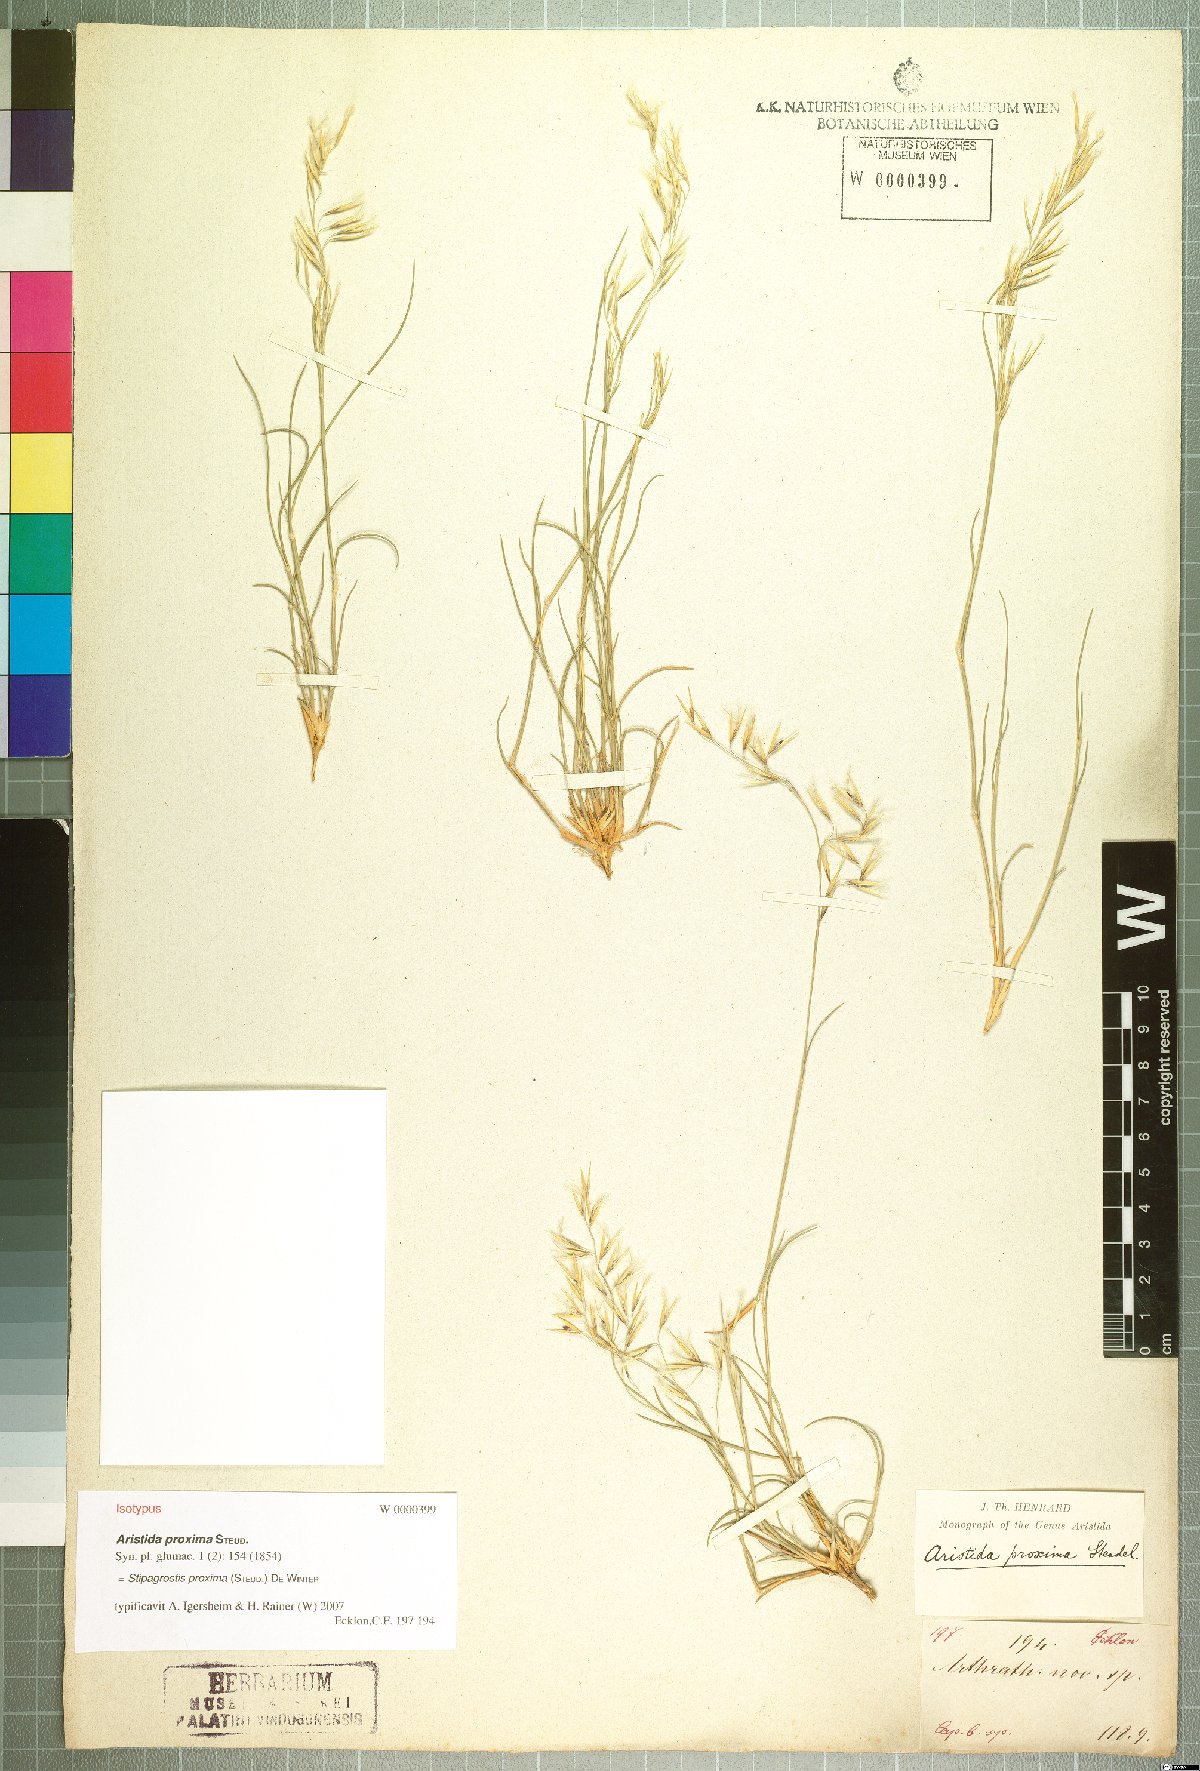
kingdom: Plantae
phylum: Tracheophyta
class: Liliopsida
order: Poales
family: Poaceae
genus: Stipagrostis
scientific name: Stipagrostis proxima
